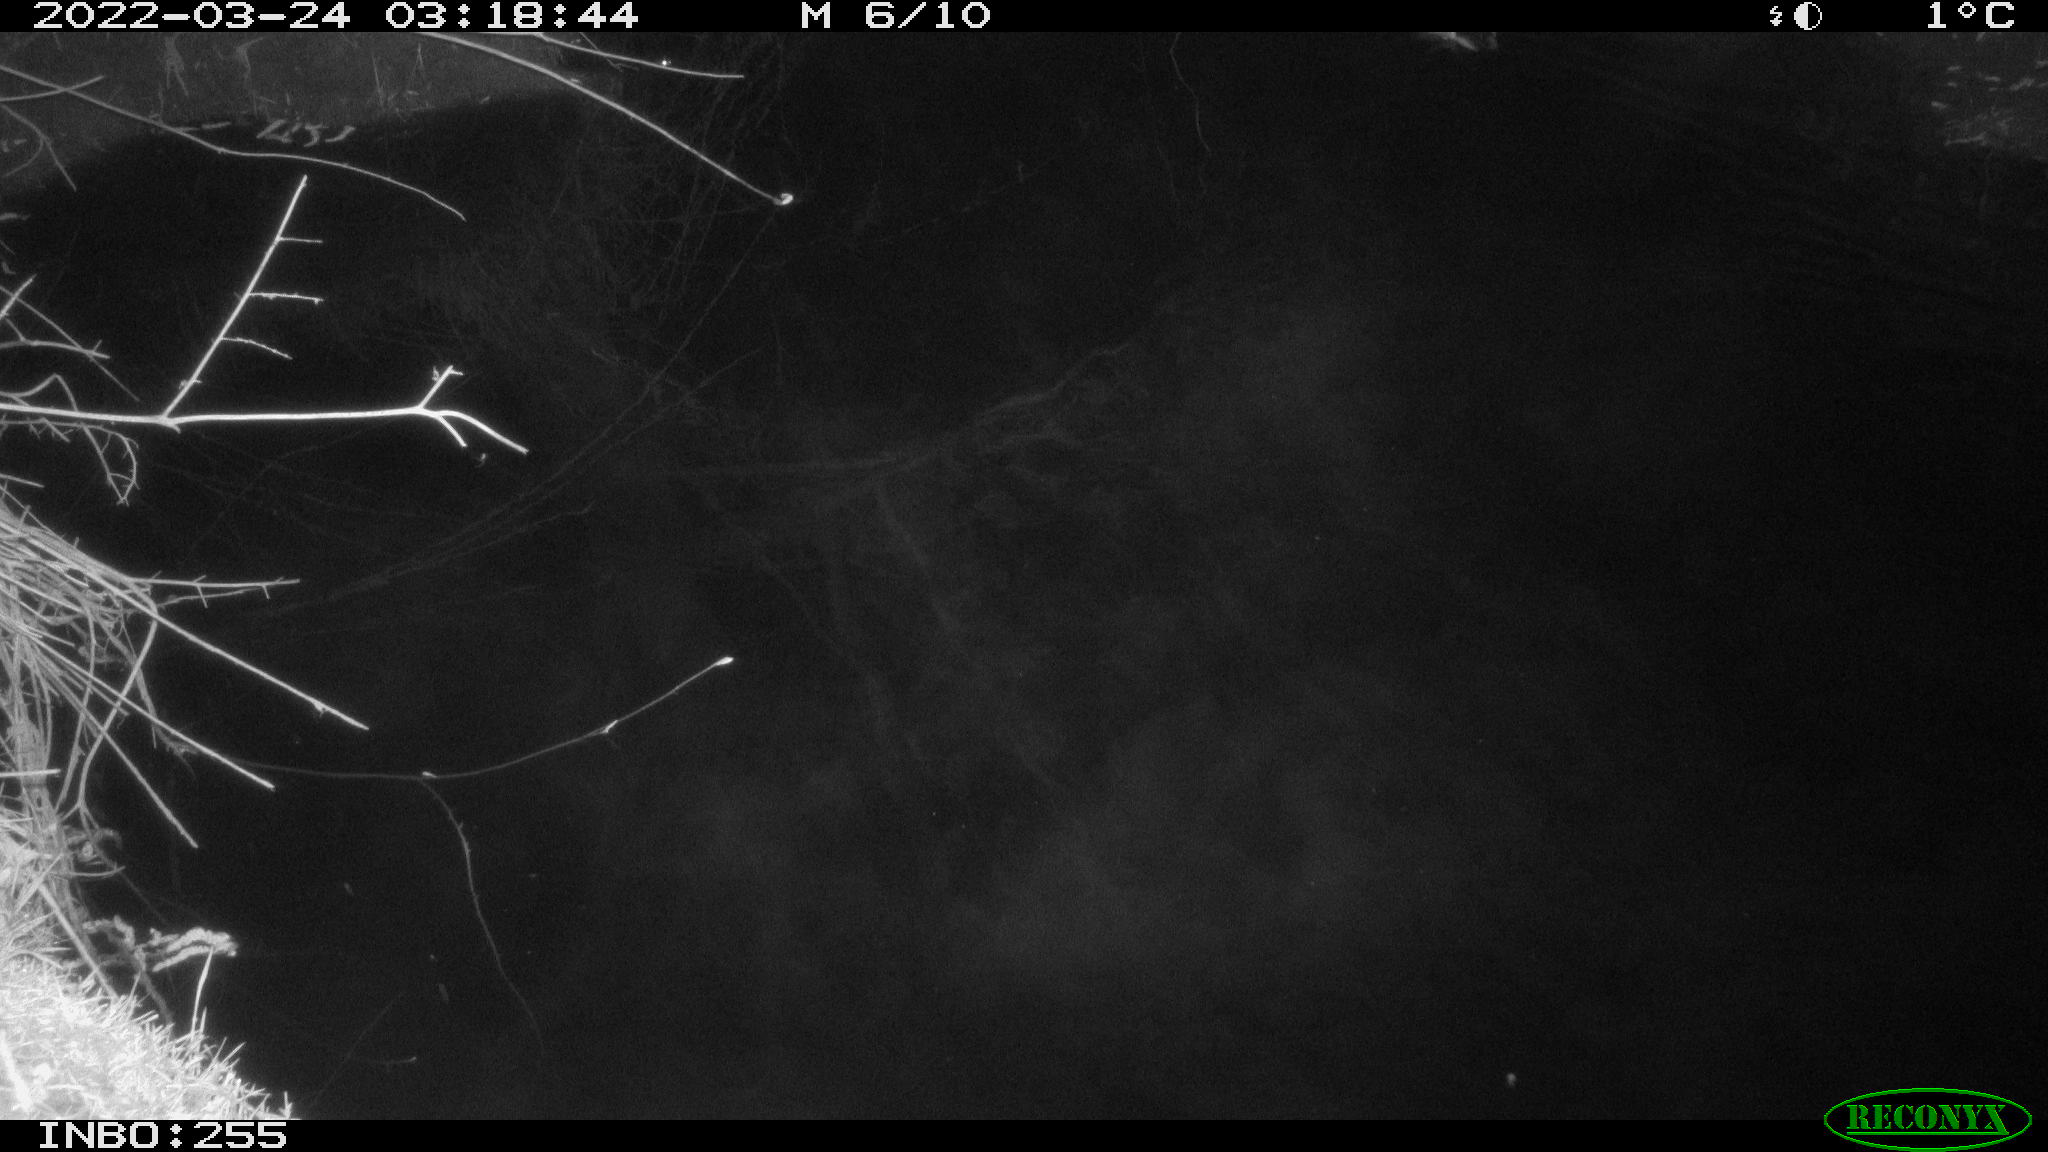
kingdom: Animalia
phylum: Chordata
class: Aves
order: Anseriformes
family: Anatidae
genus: Anas
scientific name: Anas platyrhynchos
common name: Mallard
